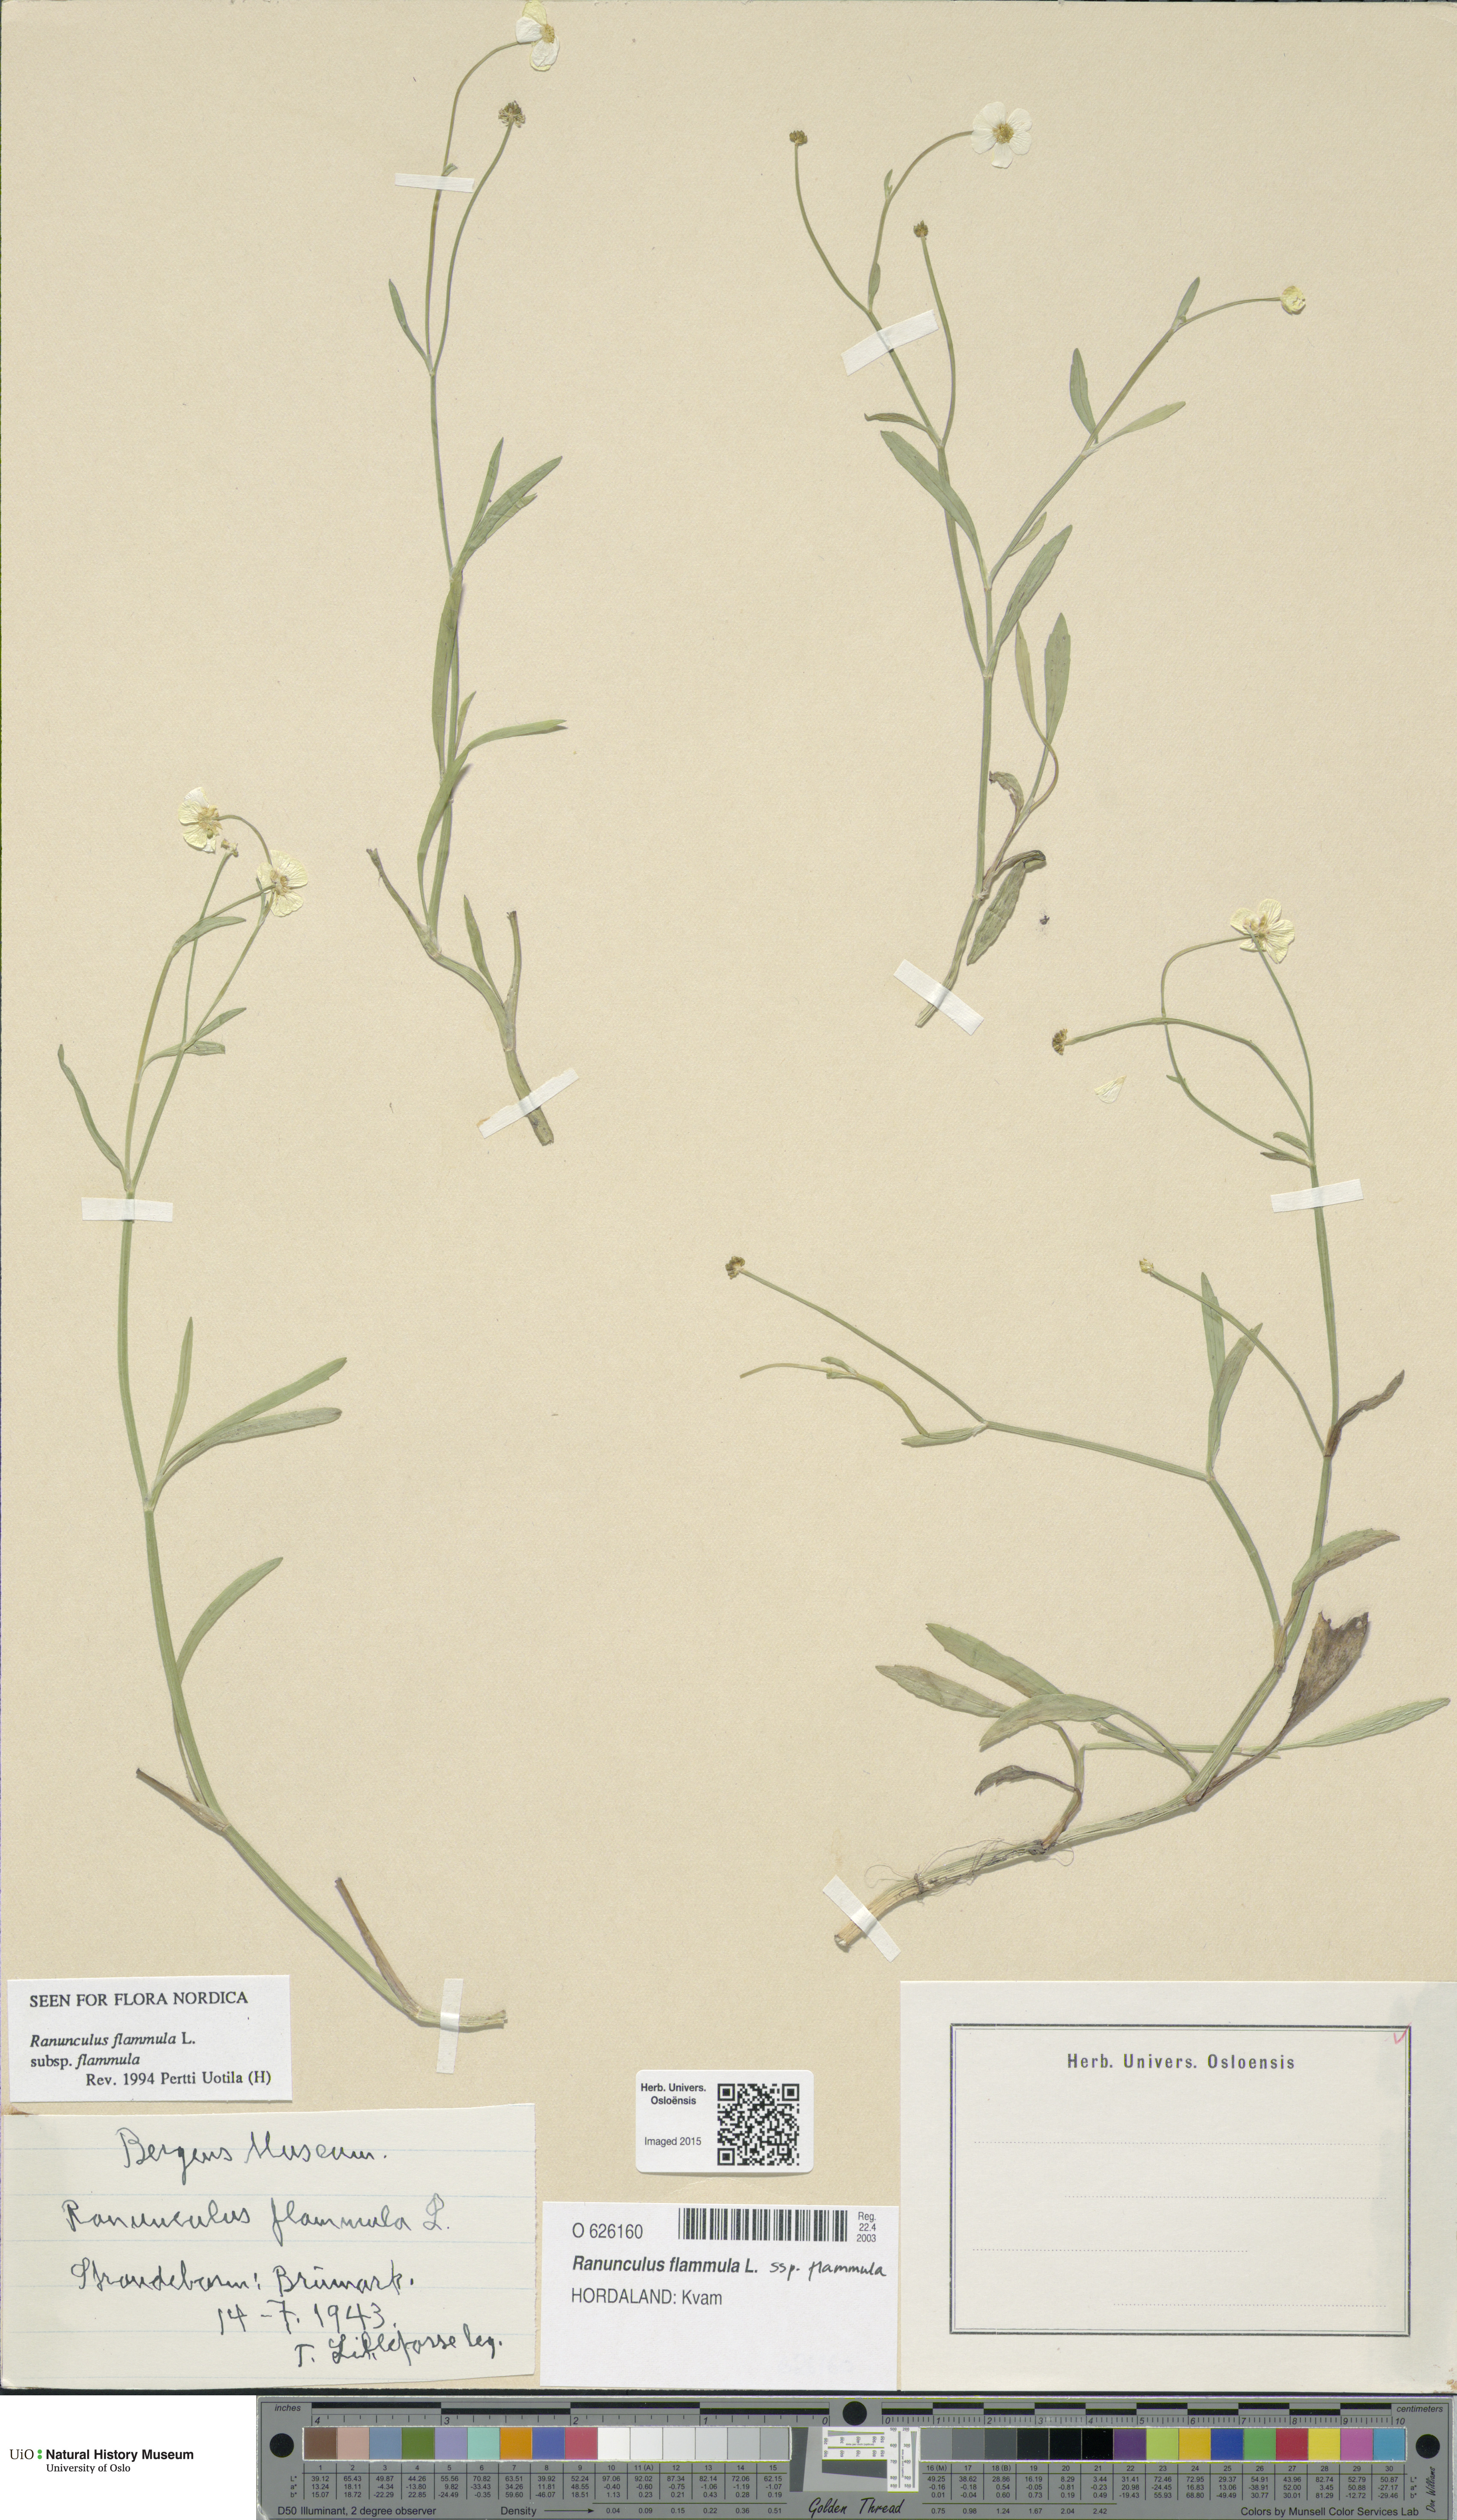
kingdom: Plantae
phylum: Tracheophyta
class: Magnoliopsida
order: Ranunculales
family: Ranunculaceae
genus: Ranunculus
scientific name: Ranunculus flammula
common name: Lesser spearwort
